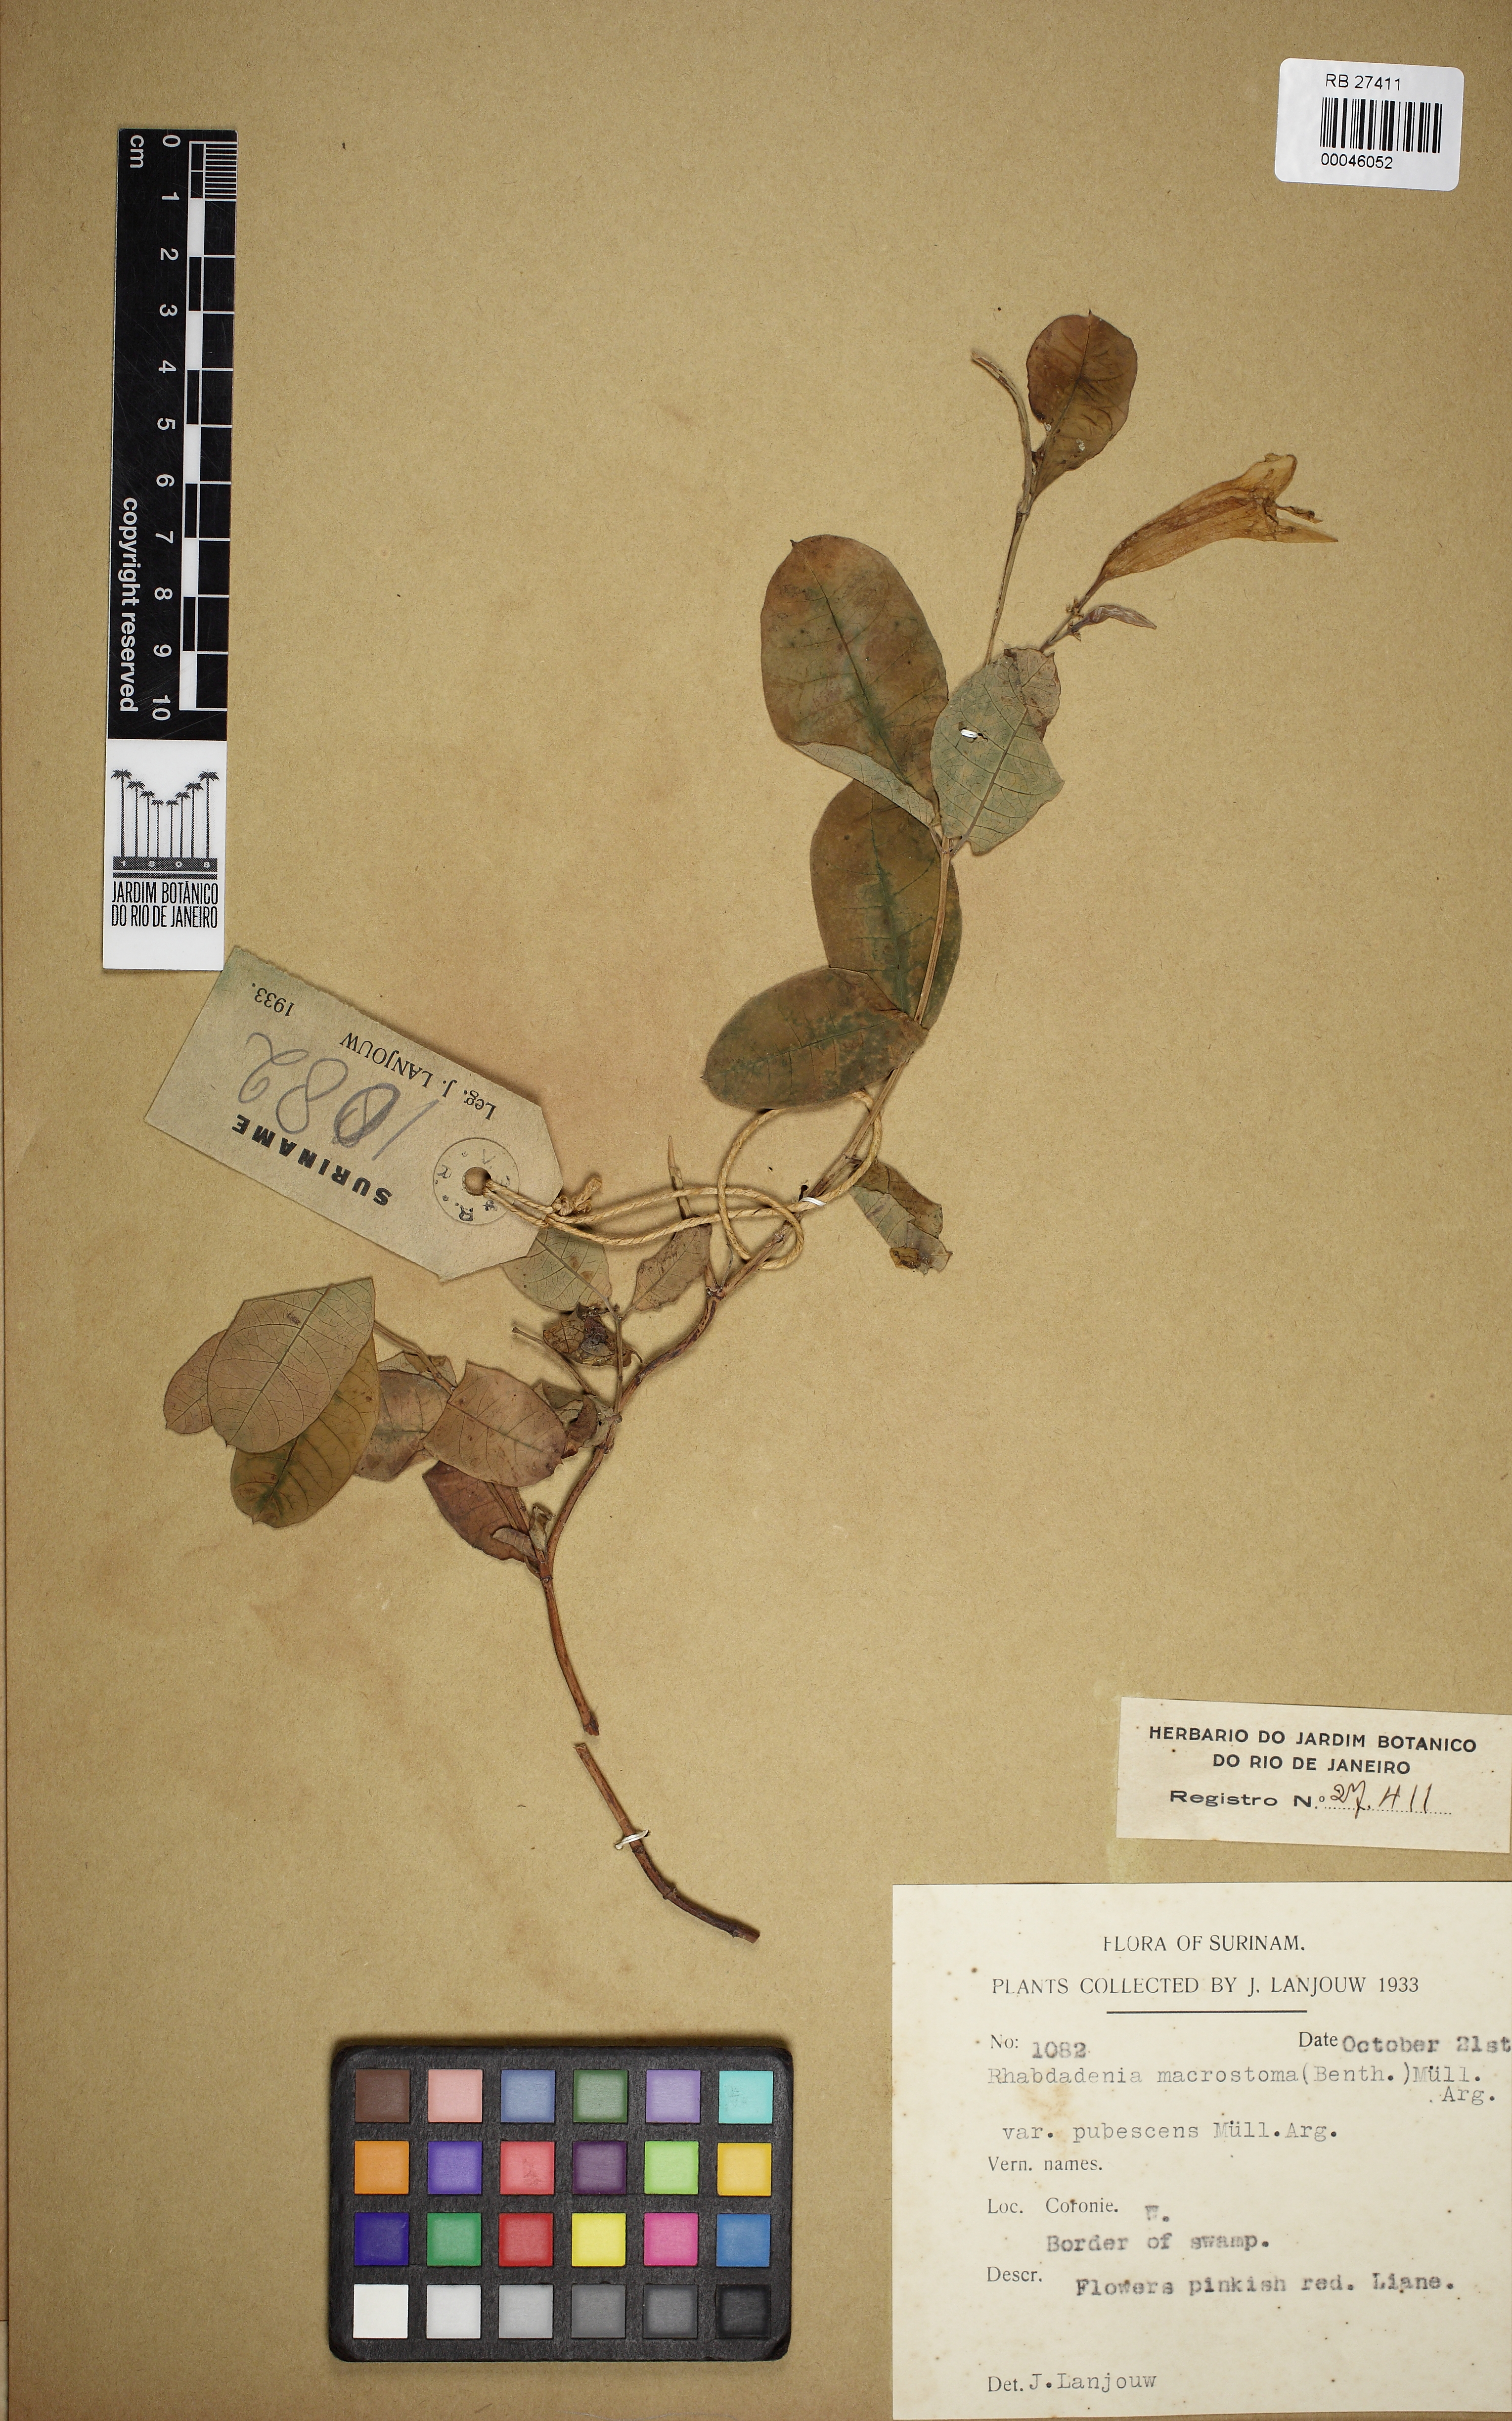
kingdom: Plantae
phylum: Tracheophyta
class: Magnoliopsida
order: Gentianales
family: Apocynaceae
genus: Rhabdadenia
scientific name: Rhabdadenia madida
